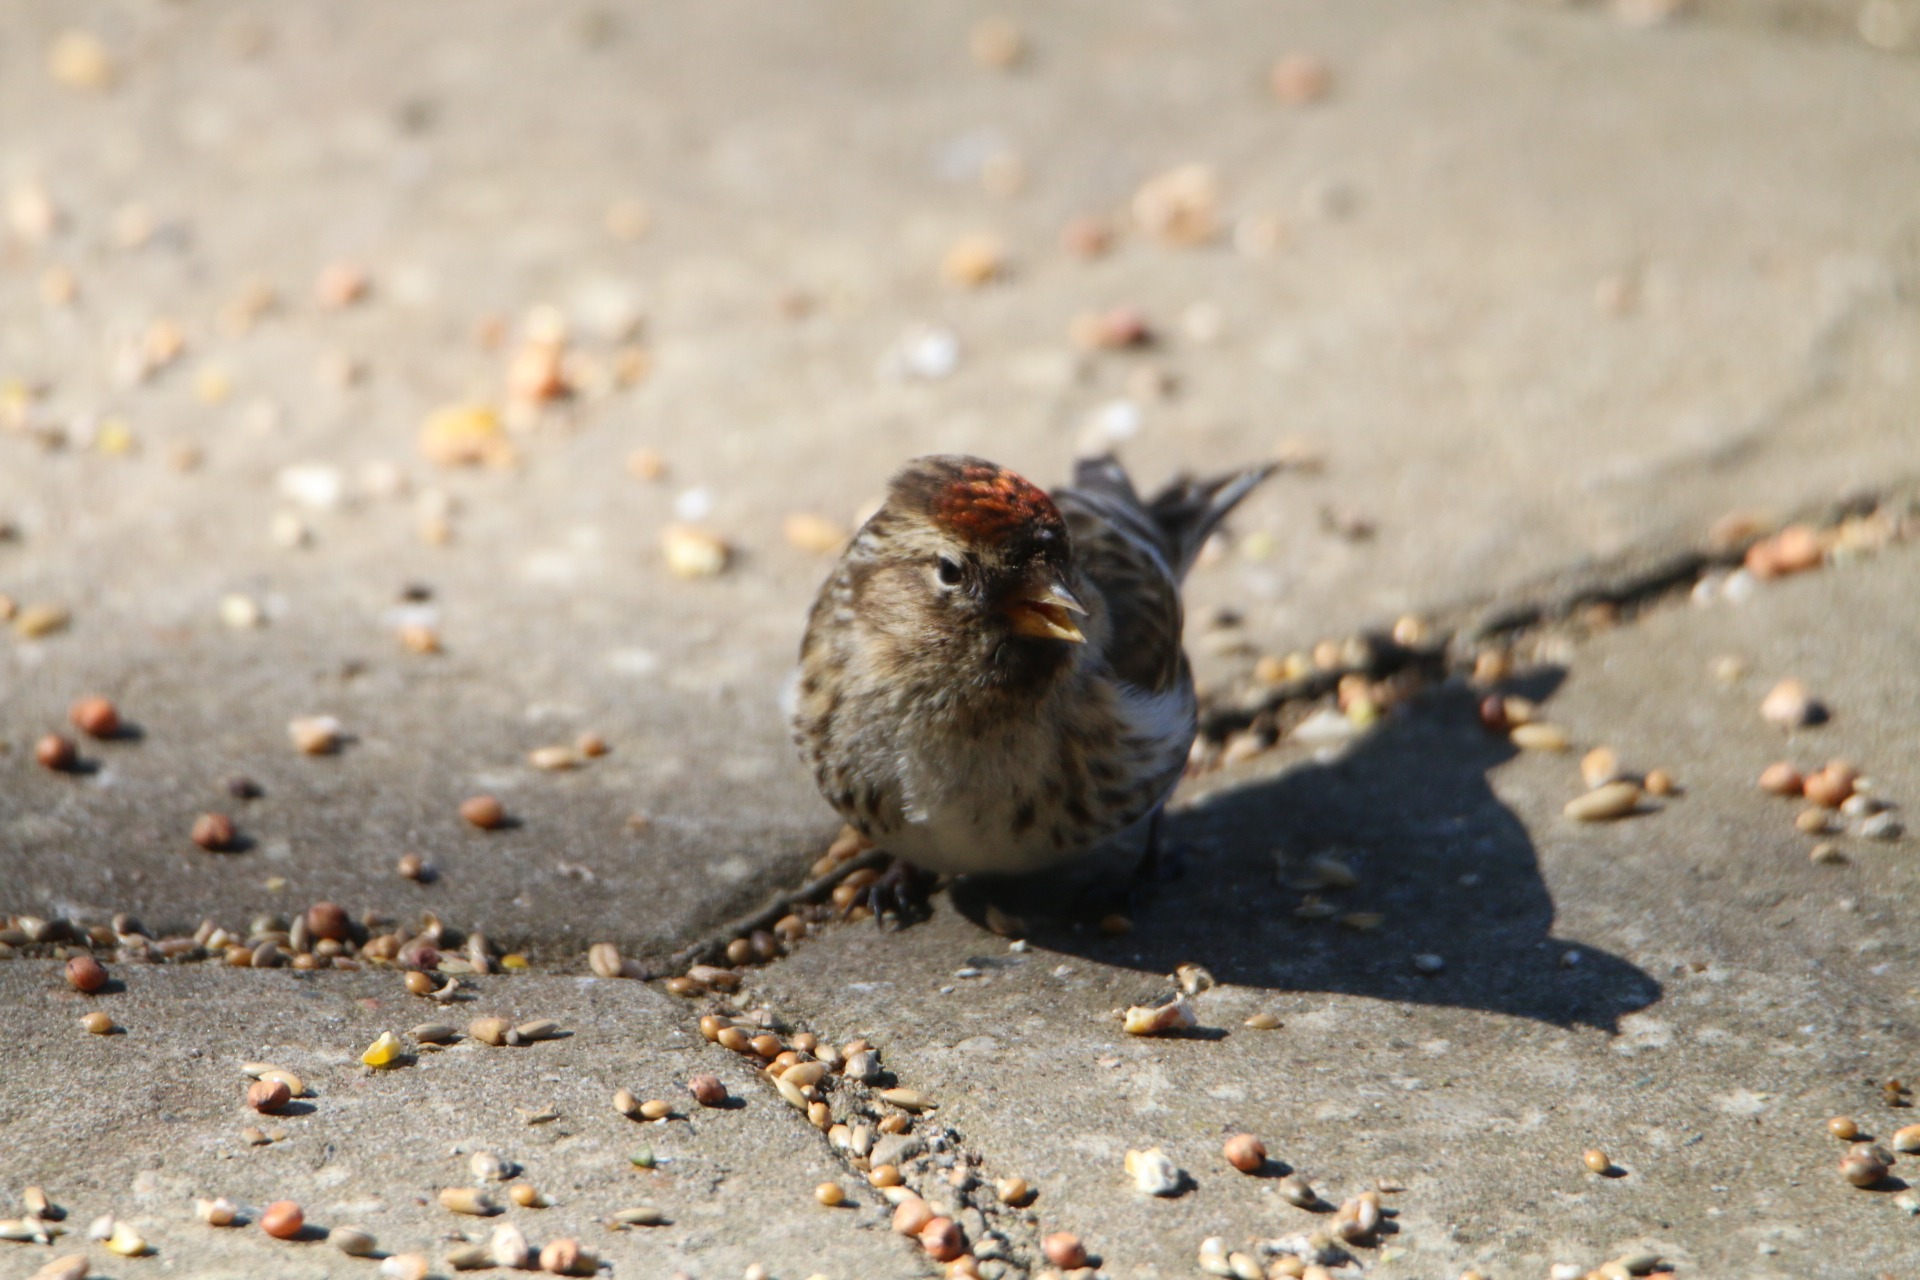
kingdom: Animalia
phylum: Chordata
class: Aves
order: Passeriformes
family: Fringillidae
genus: Acanthis
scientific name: Acanthis flammea
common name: Nordlig gråsisken
